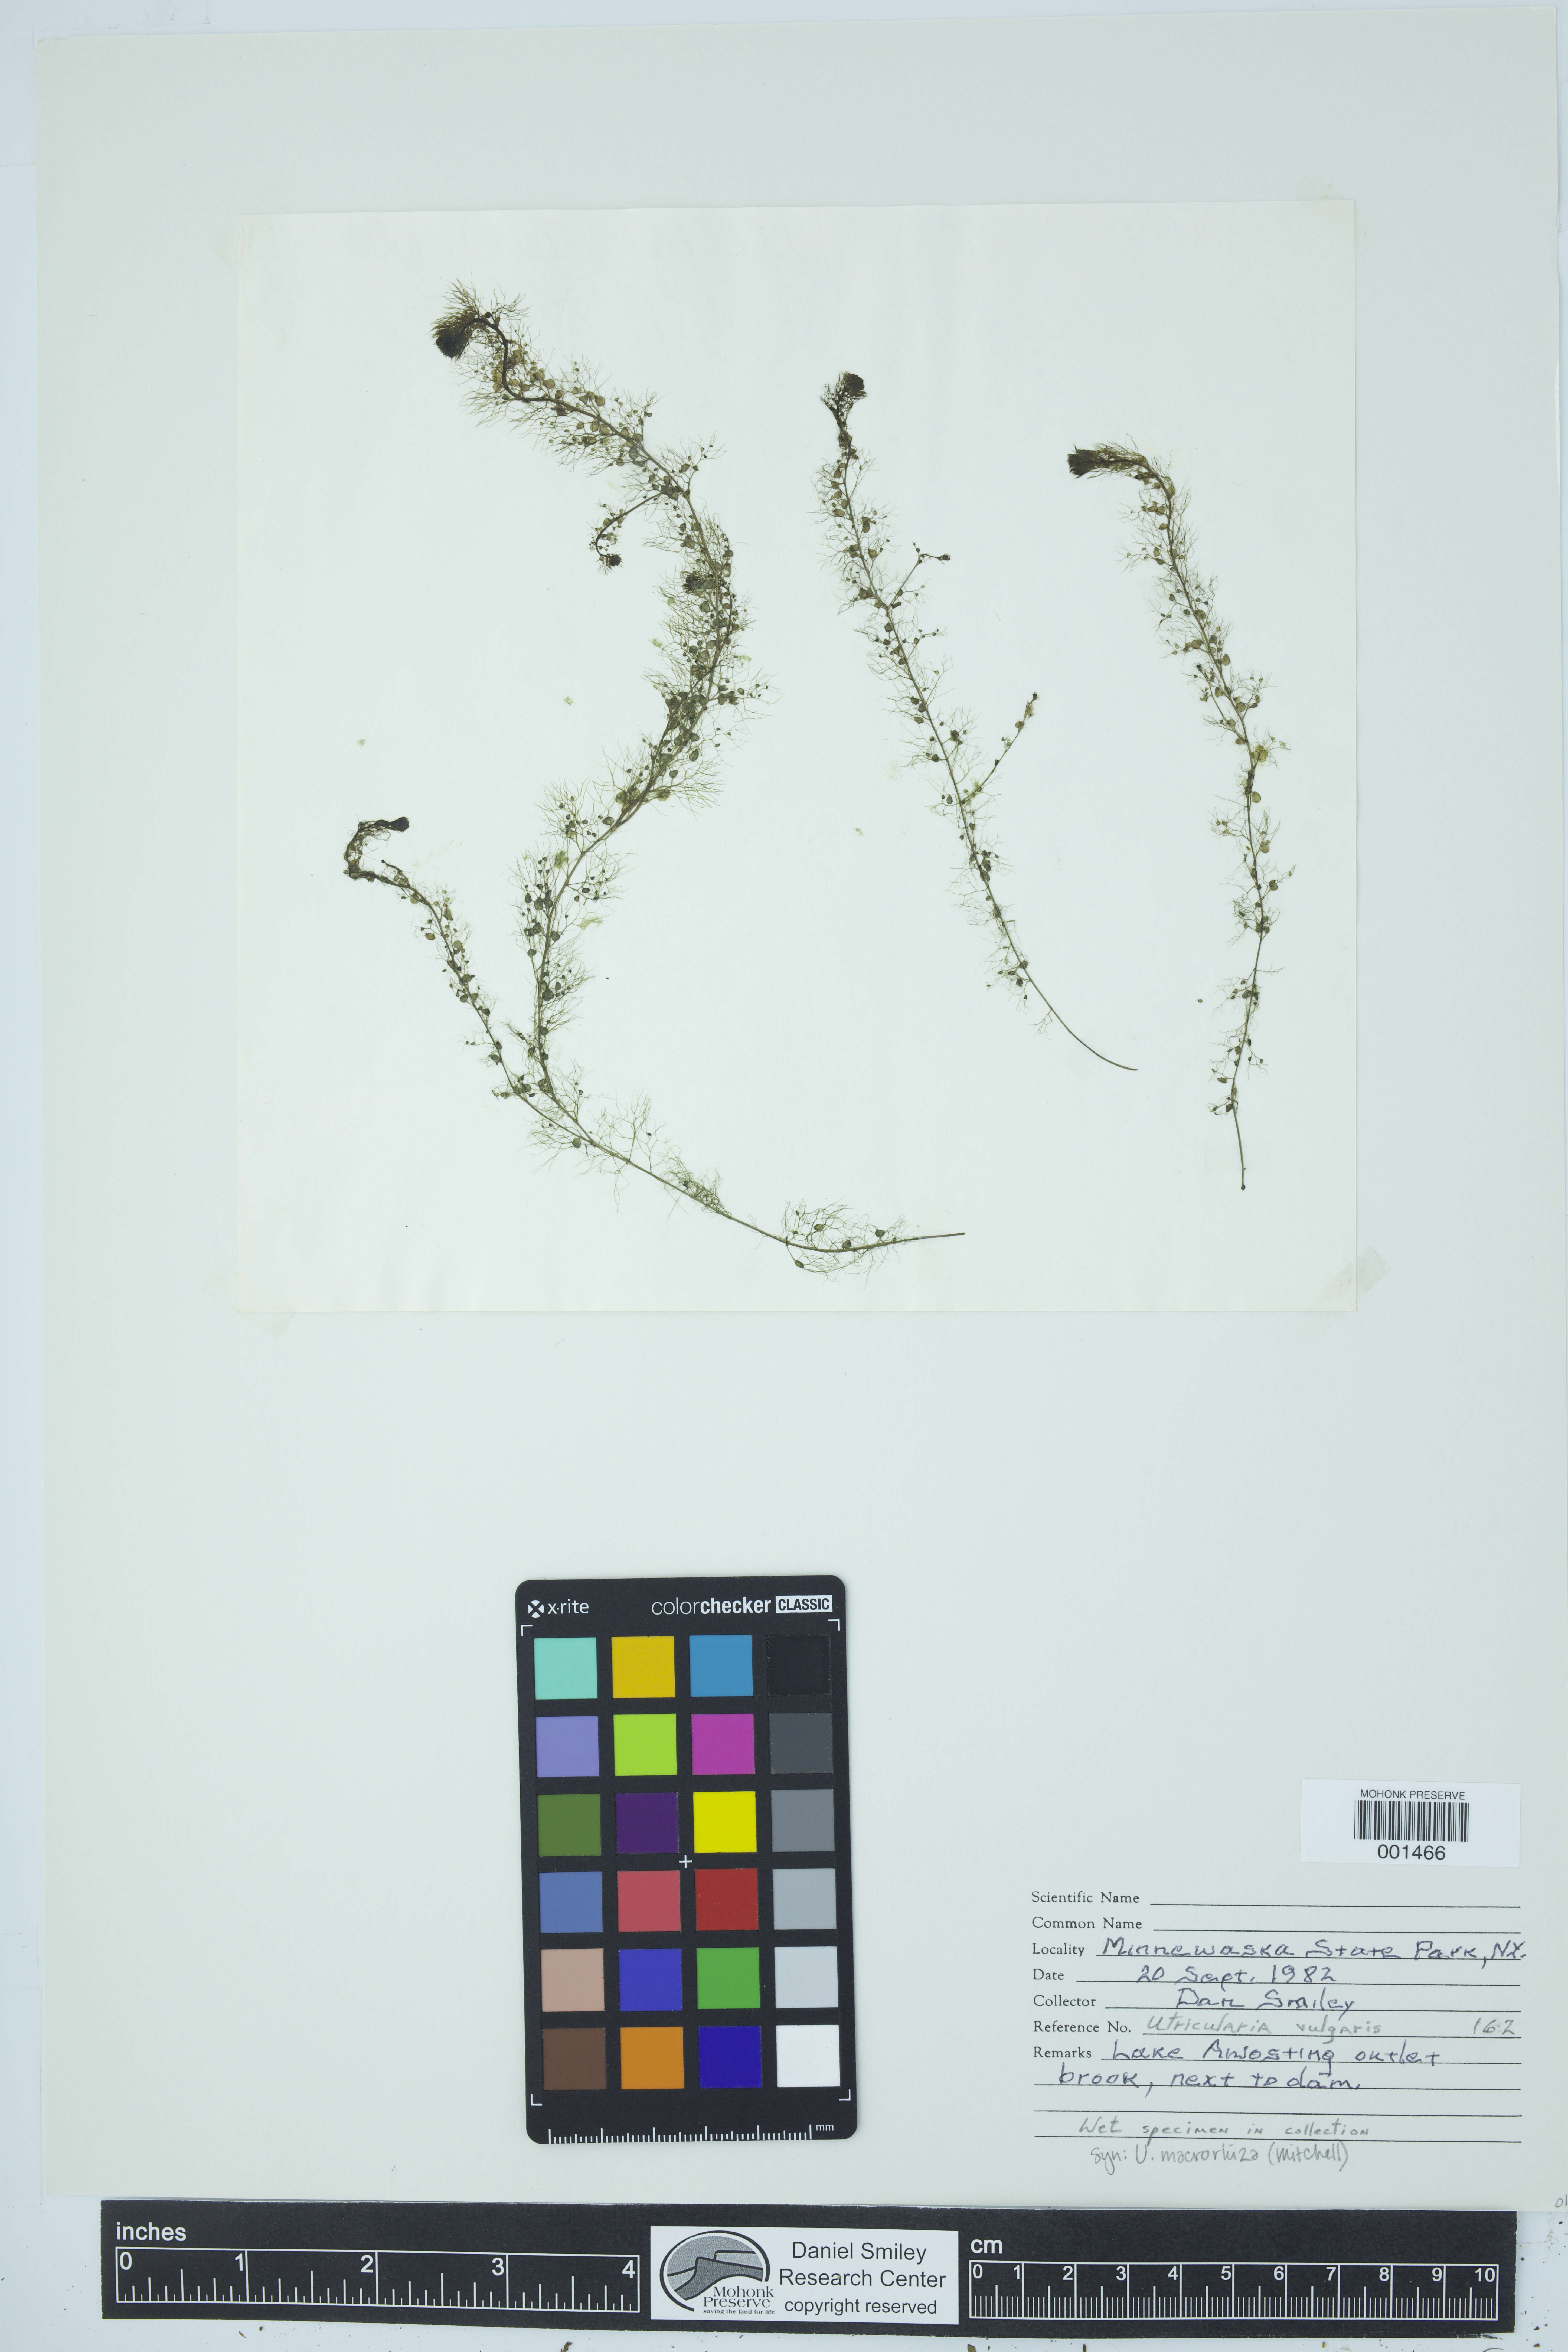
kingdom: Plantae
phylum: Tracheophyta
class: Magnoliopsida
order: Lamiales
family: Lentibulariaceae
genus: Utricularia
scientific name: Utricularia macrorhiza
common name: Common bladderwort
